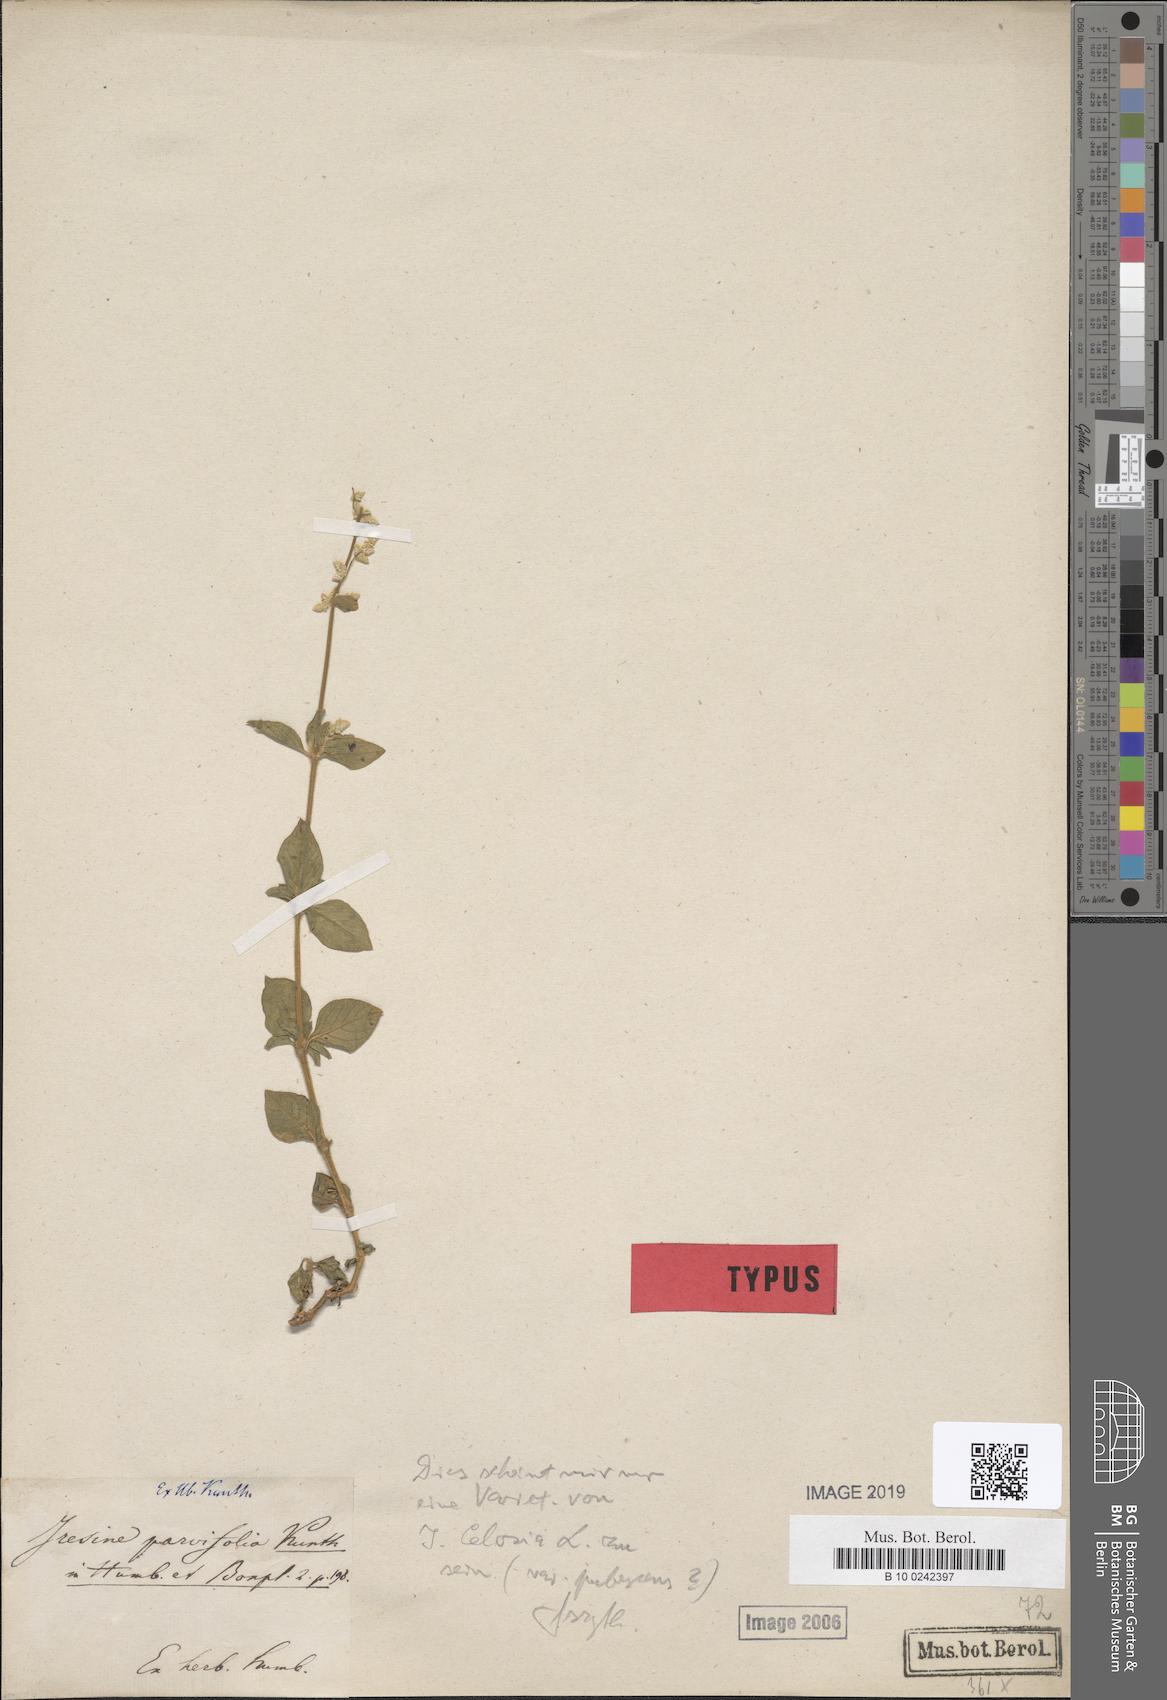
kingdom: Plantae
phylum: Tracheophyta
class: Magnoliopsida
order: Caryophyllales
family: Amaranthaceae
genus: Iresine
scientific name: Iresine diffusa
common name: Juba's-bush
